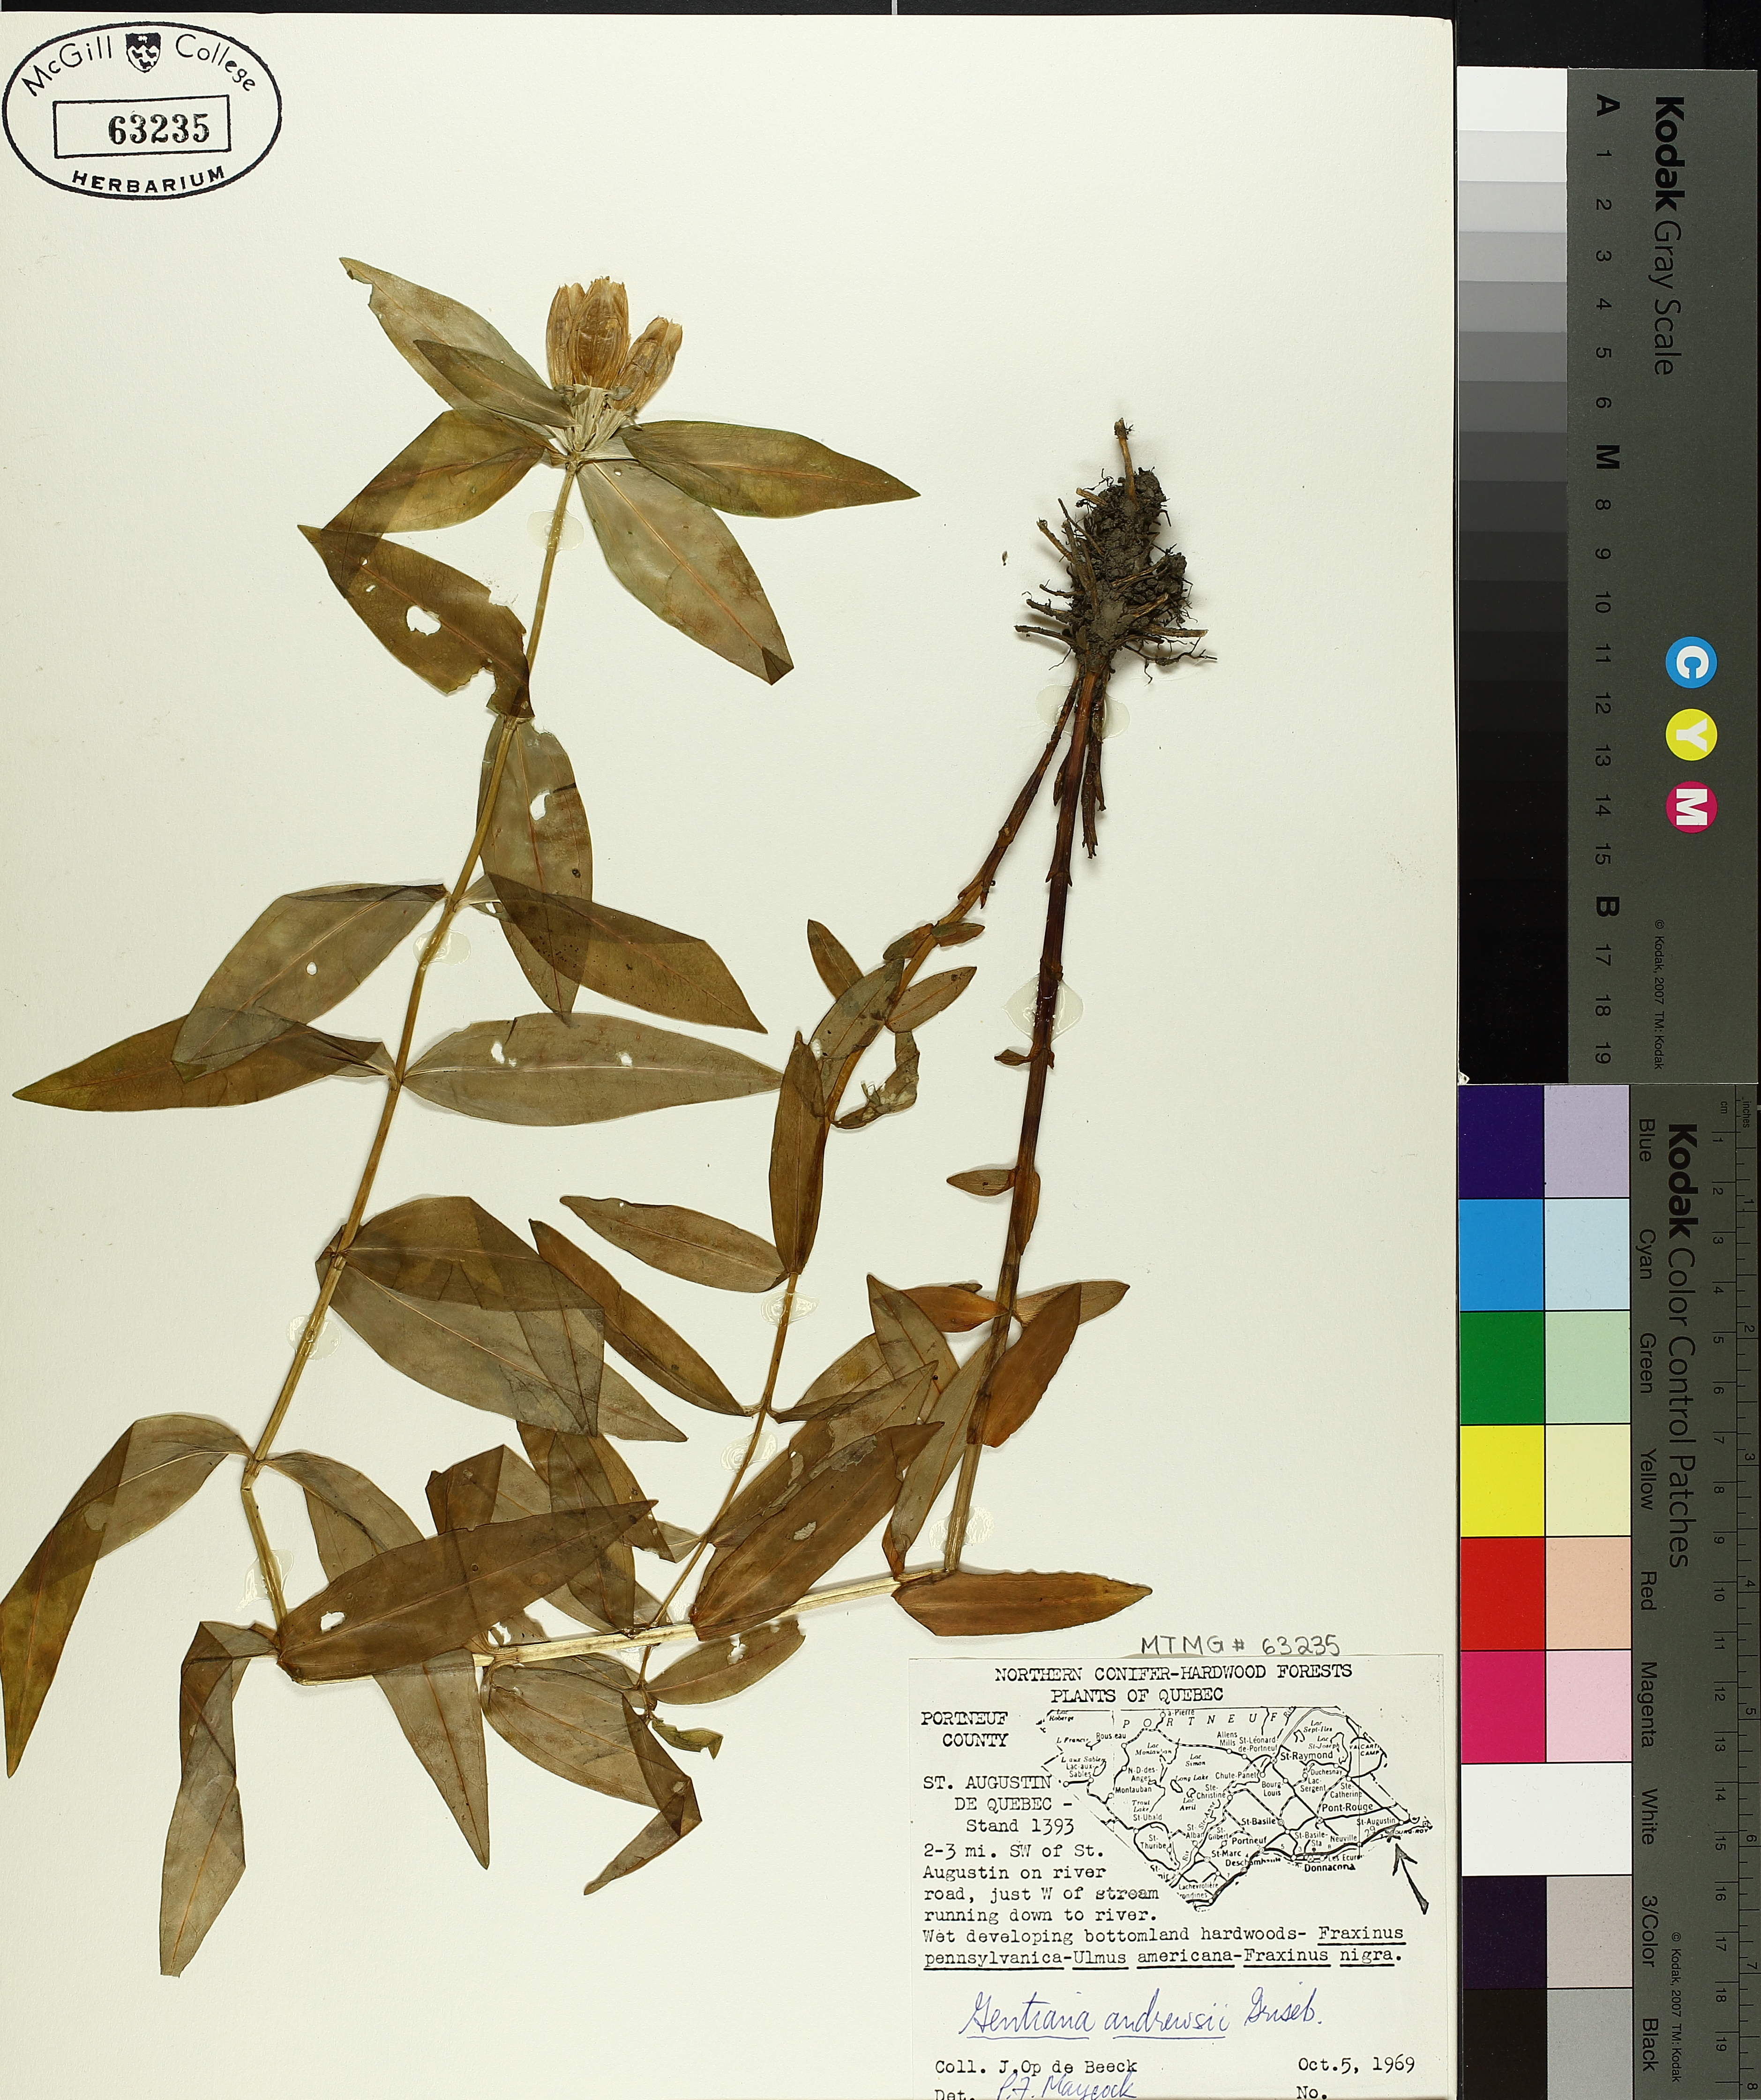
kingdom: Plantae
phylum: Tracheophyta
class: Magnoliopsida
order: Gentianales
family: Gentianaceae
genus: Gentiana
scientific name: Gentiana andrewsii
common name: Bottle gentian
